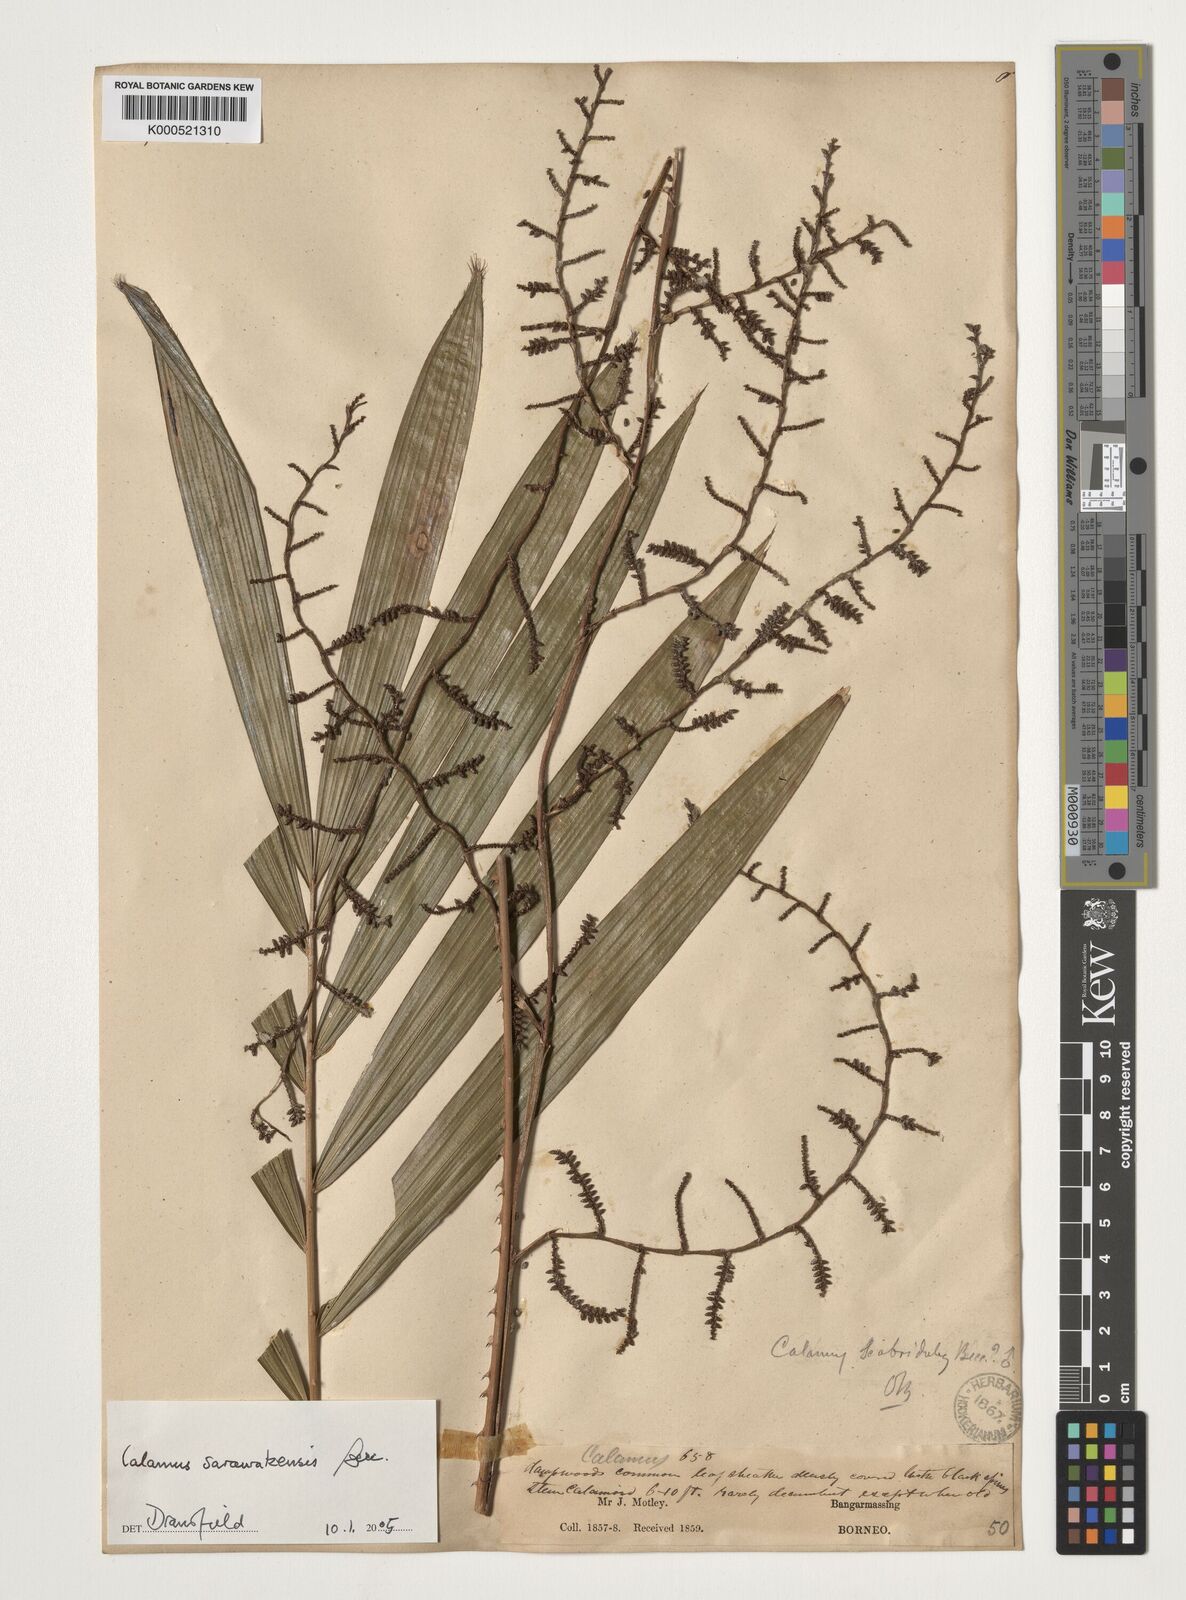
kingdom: Plantae
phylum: Tracheophyta
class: Liliopsida
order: Arecales
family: Arecaceae
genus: Calamus
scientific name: Calamus scabridulus
